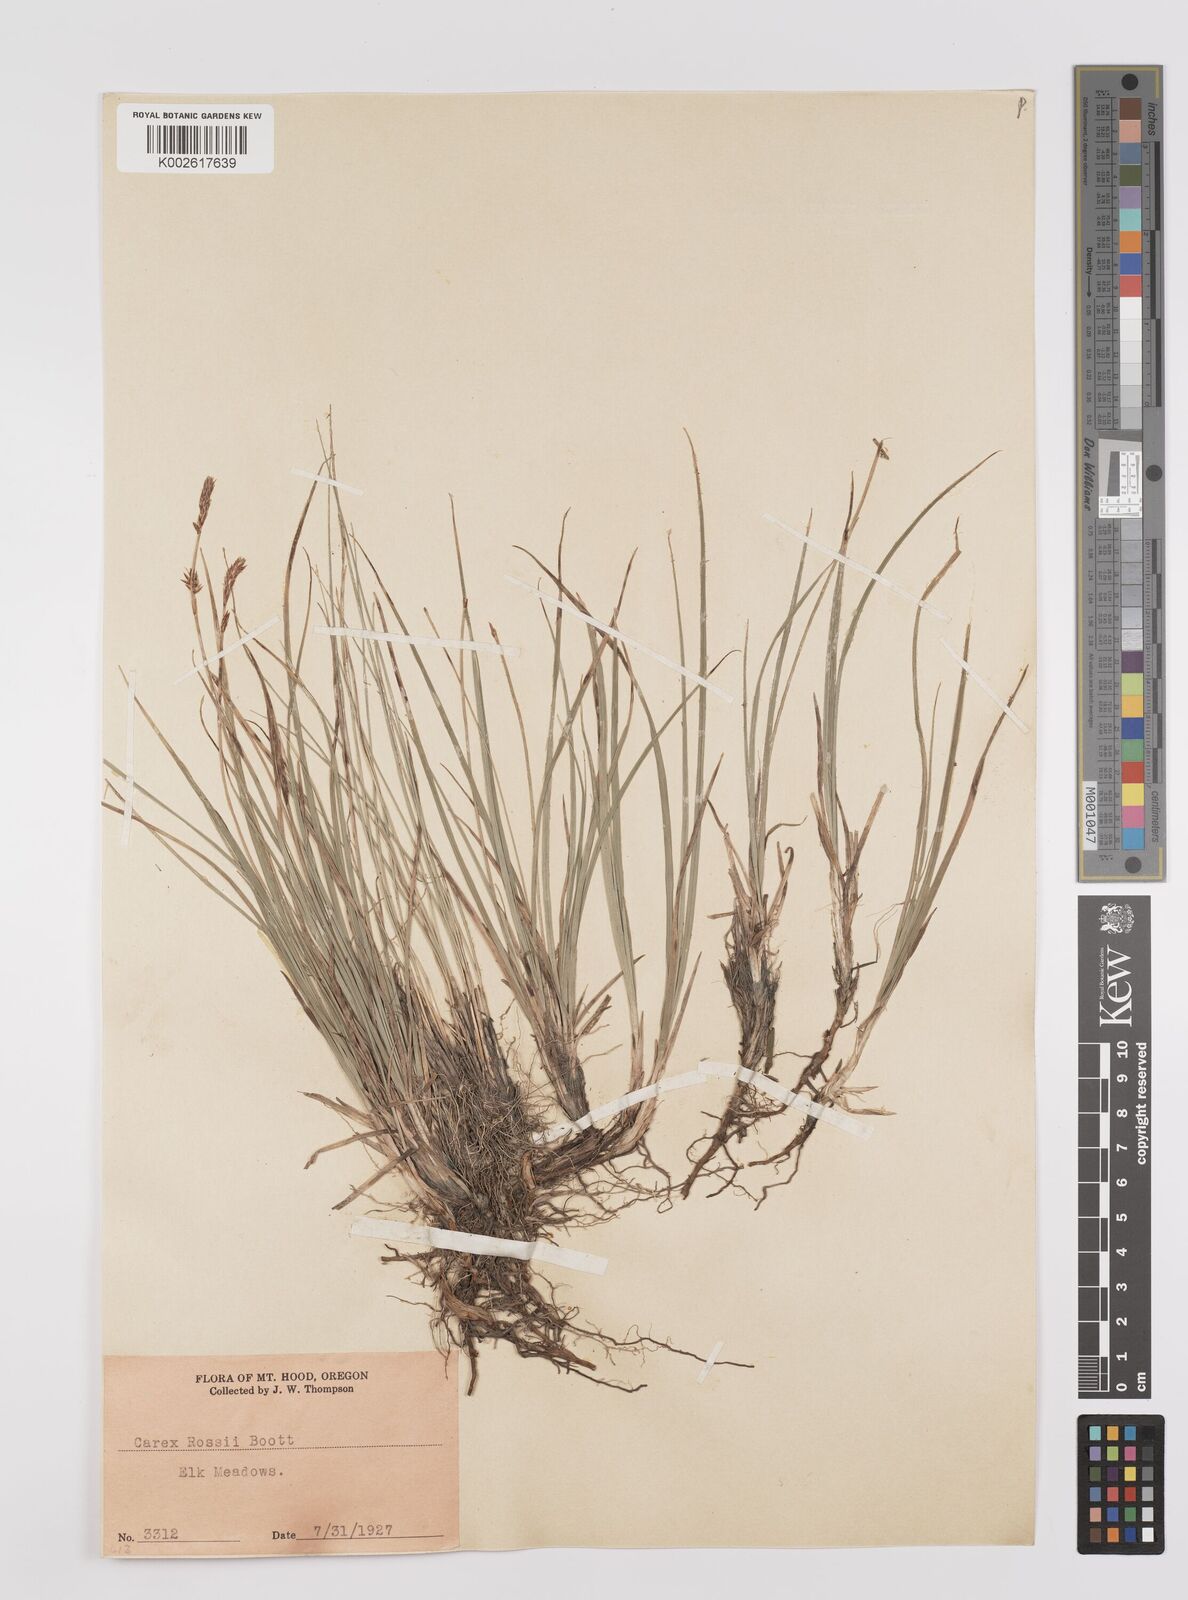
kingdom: Plantae
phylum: Tracheophyta
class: Liliopsida
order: Poales
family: Cyperaceae
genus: Carex
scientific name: Carex rossii
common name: Ross' sedge
